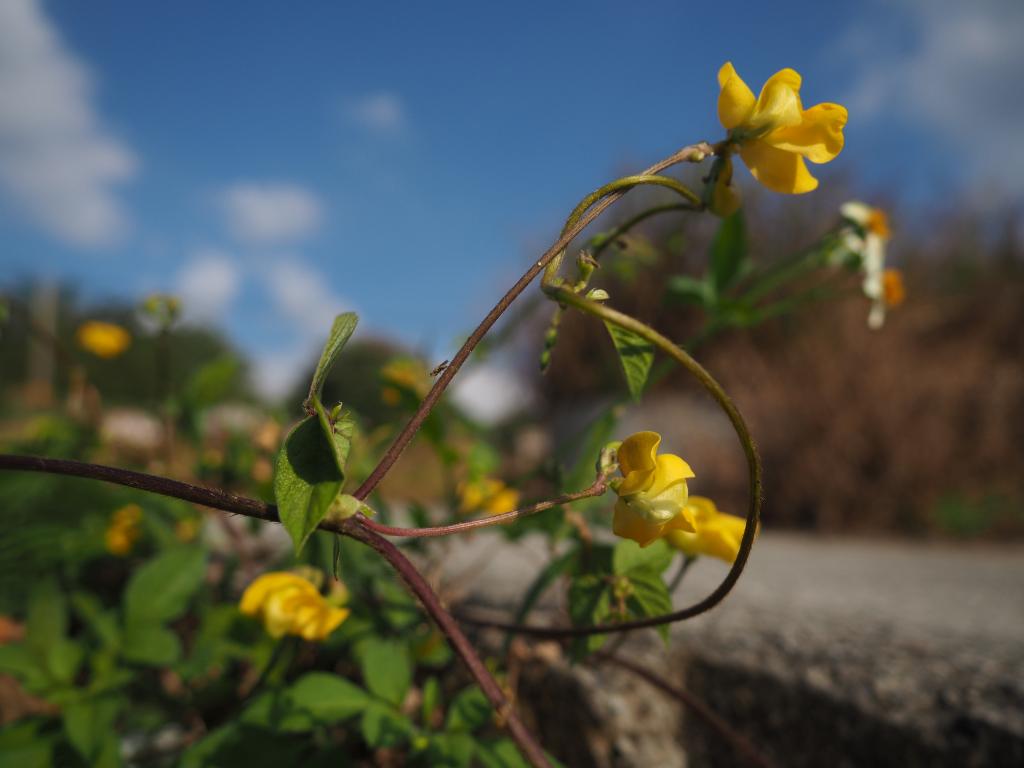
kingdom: Plantae
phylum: Tracheophyta
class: Magnoliopsida
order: Fabales
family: Fabaceae
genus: Vigna
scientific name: Vigna reflexopilosa
